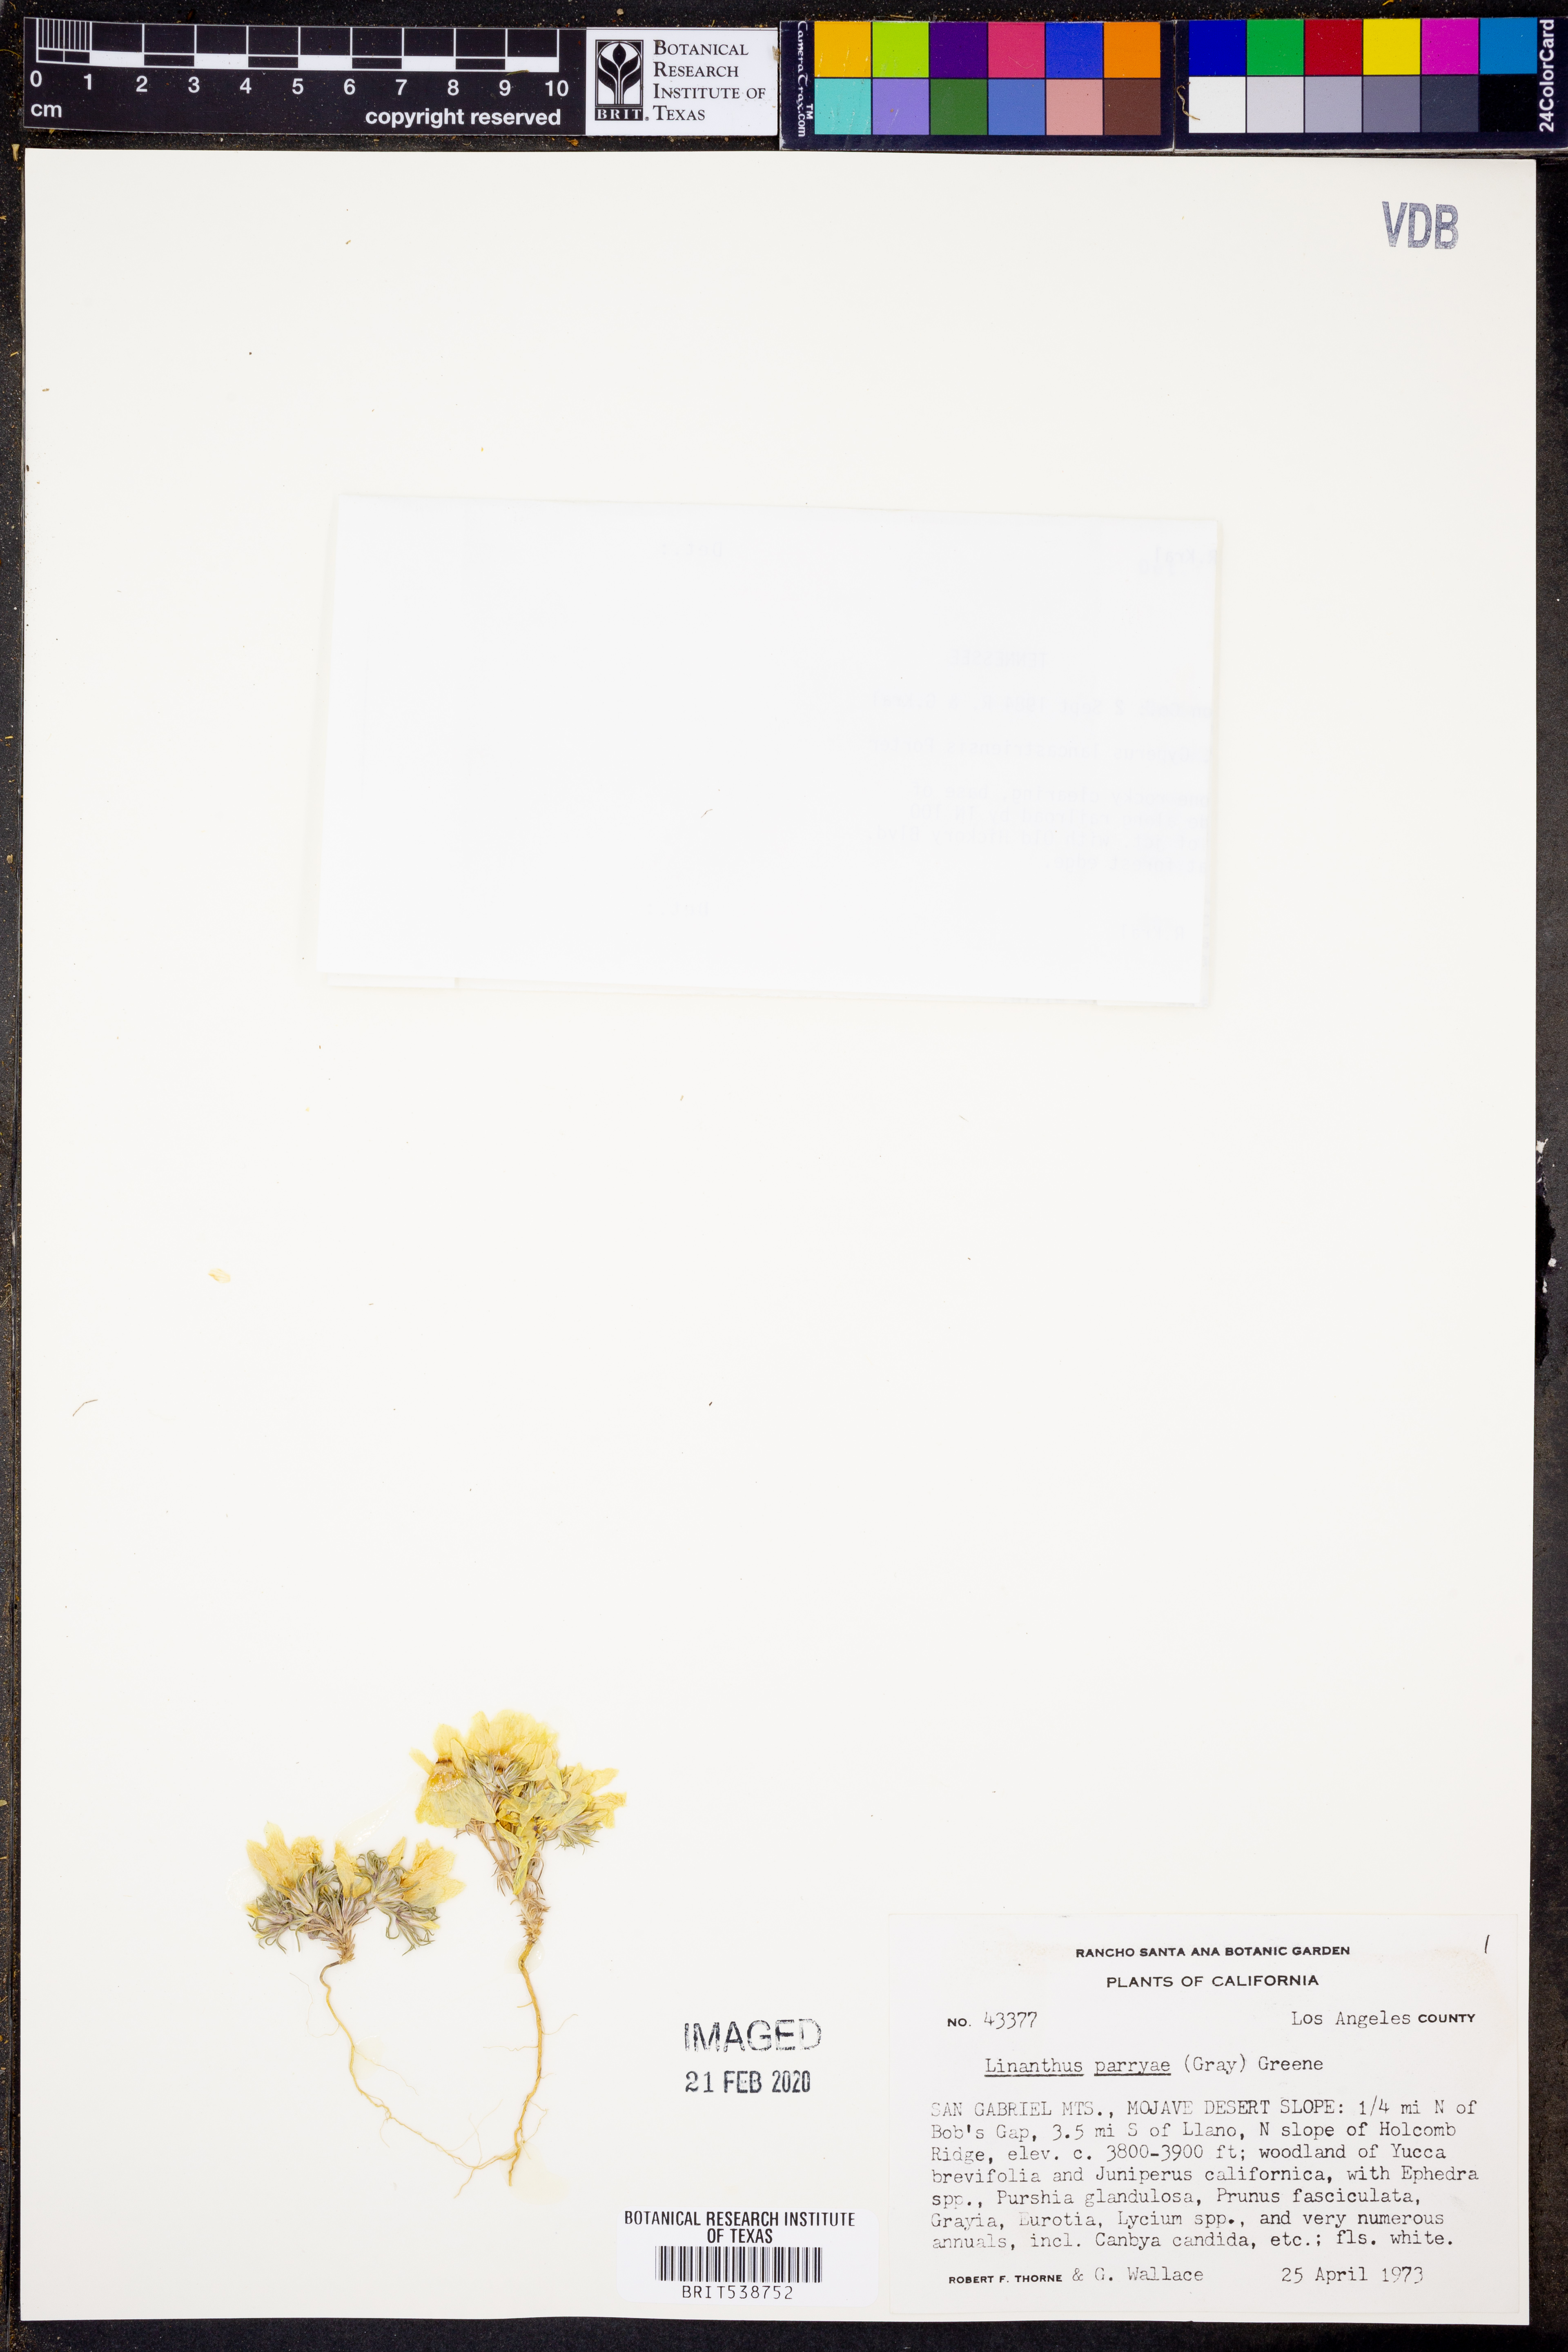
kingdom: Plantae
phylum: Tracheophyta
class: Magnoliopsida
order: Ericales
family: Polemoniaceae
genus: Linanthus
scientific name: Linanthus parryae
